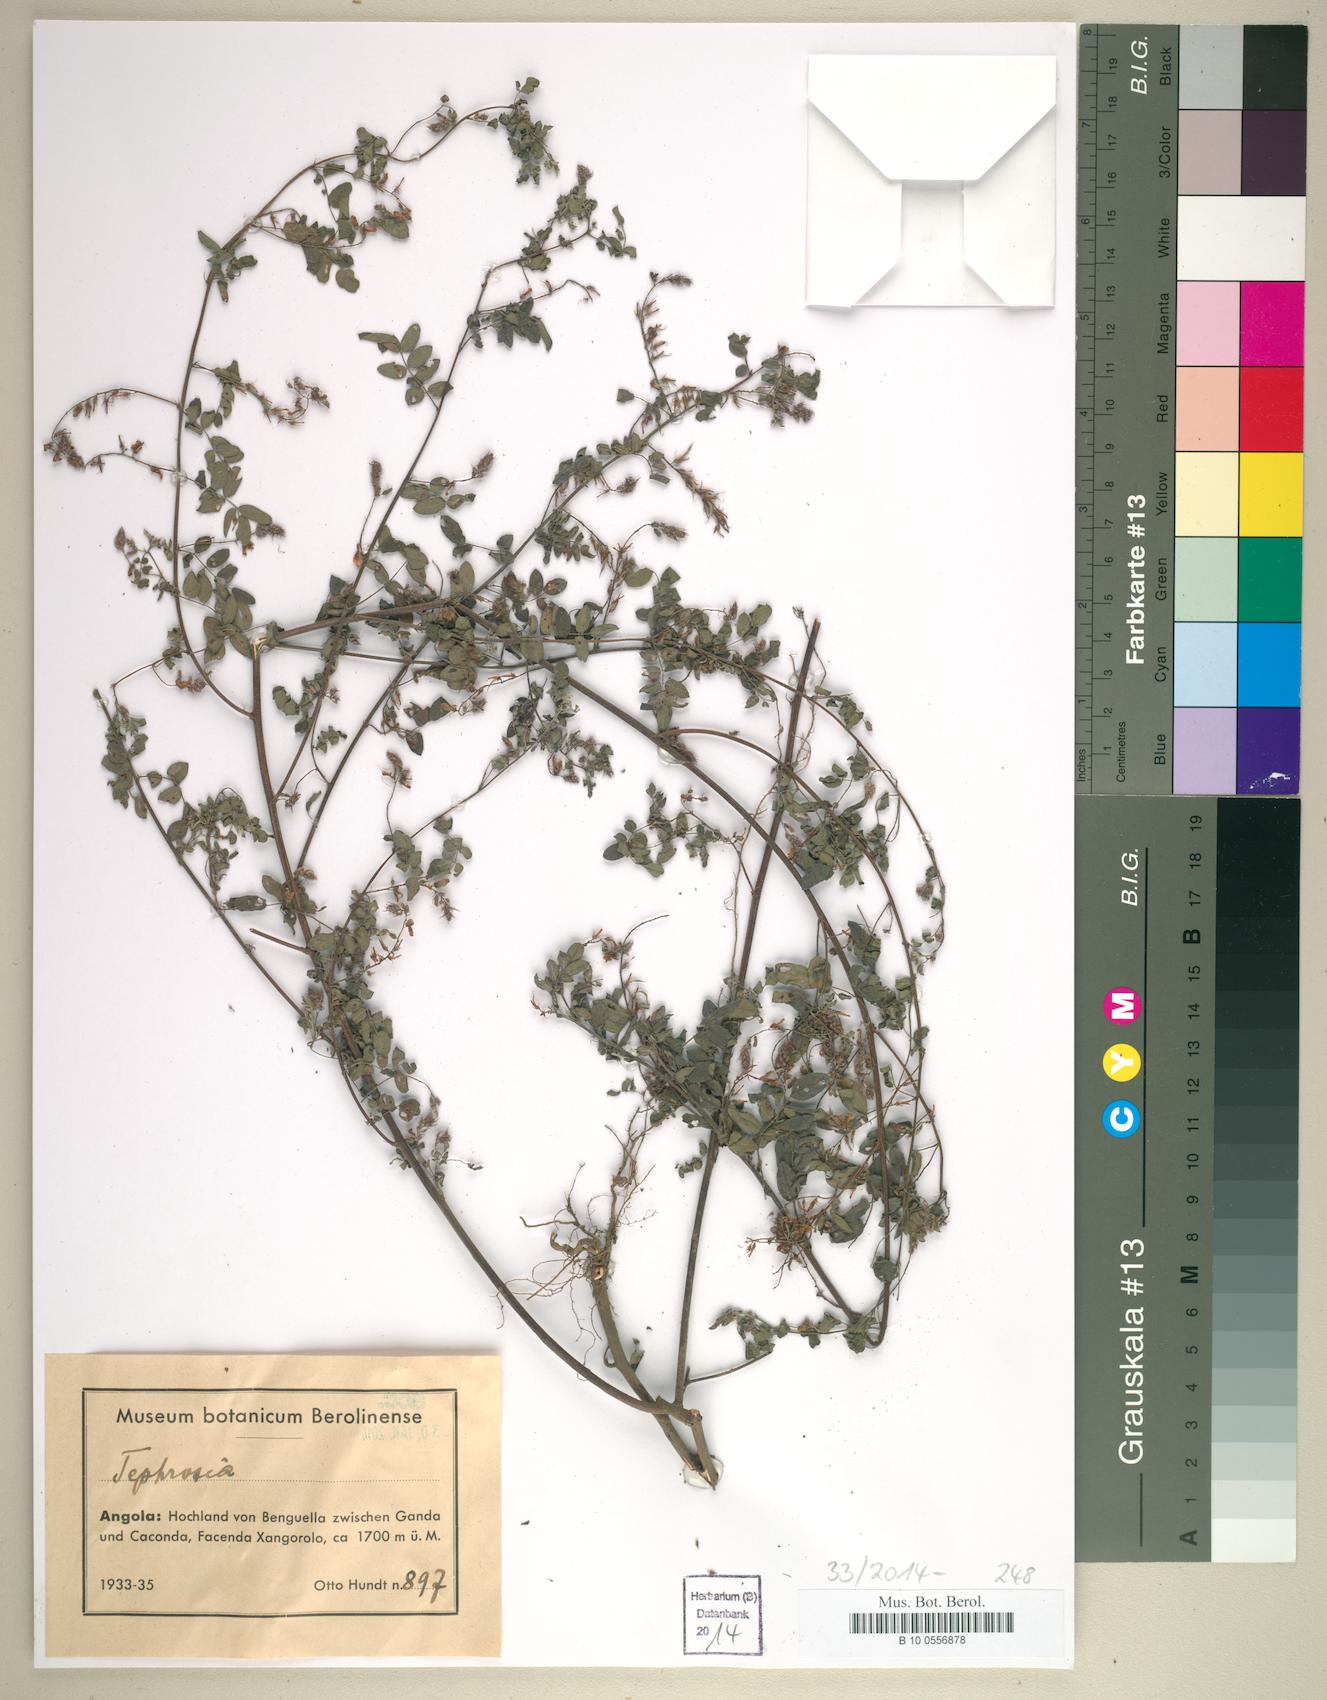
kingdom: Plantae
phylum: Tracheophyta
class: Magnoliopsida
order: Fabales
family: Fabaceae
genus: Tephrosia
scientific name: Tephrosia
